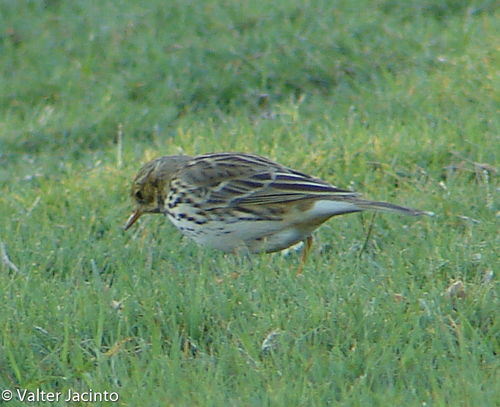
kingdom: Animalia
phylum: Chordata
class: Aves
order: Passeriformes
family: Motacillidae
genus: Anthus
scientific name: Anthus pratensis
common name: Meadow pipit
